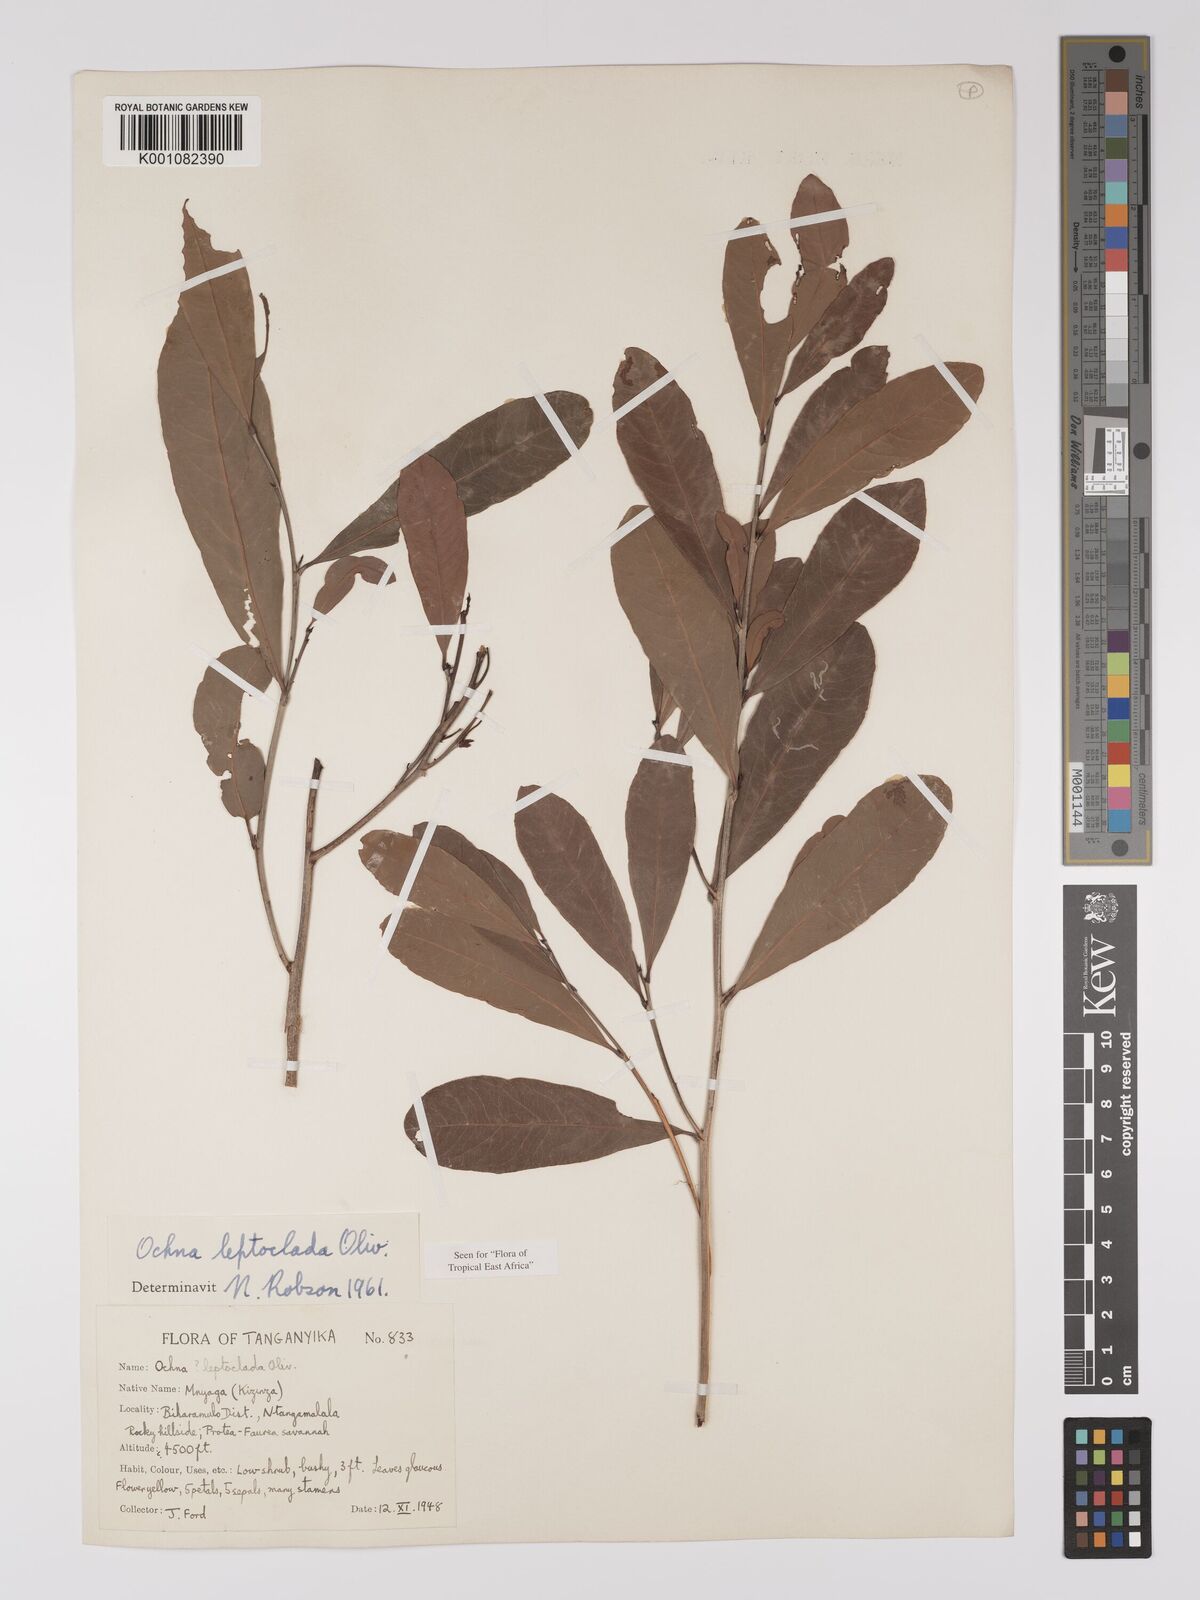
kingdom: Plantae
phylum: Tracheophyta
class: Magnoliopsida
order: Malpighiales
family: Ochnaceae
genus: Ochna
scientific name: Ochna leptoclada
